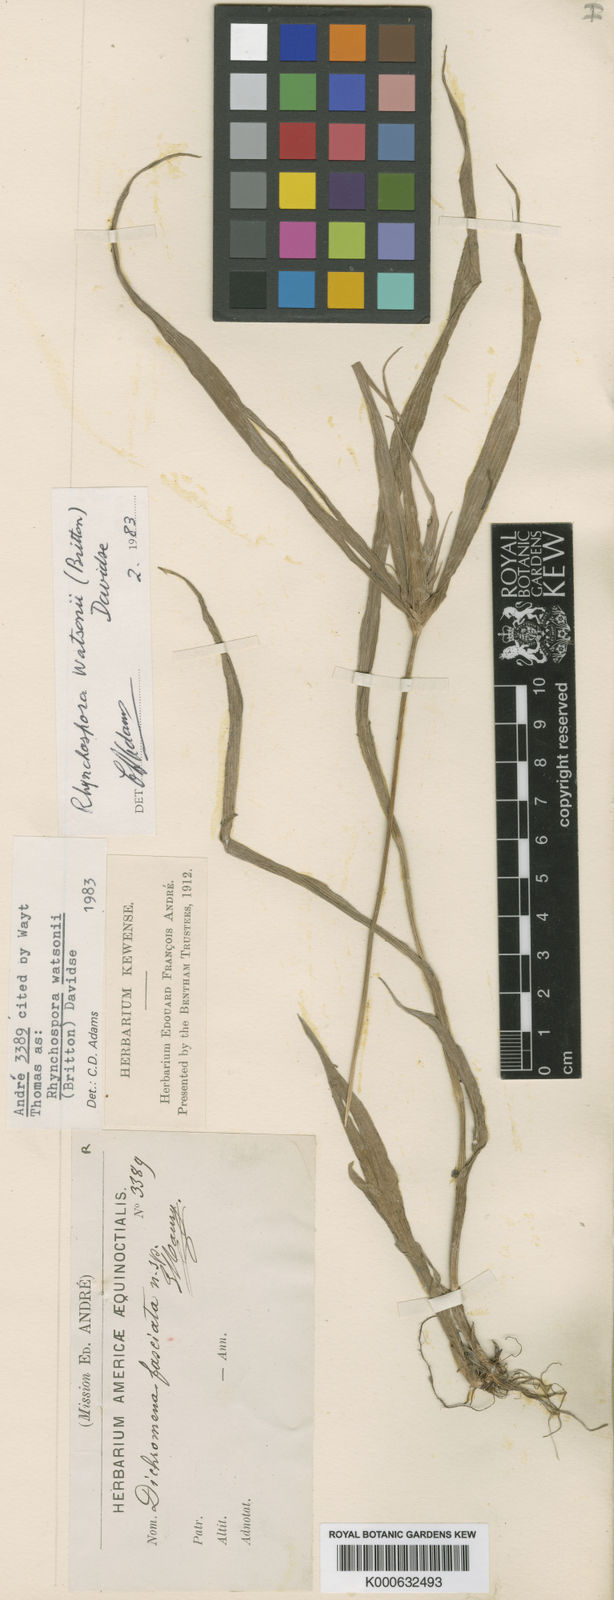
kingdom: Plantae
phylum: Tracheophyta
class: Liliopsida
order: Poales
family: Cyperaceae
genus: Rhynchospora
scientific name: Rhynchospora watsonii
